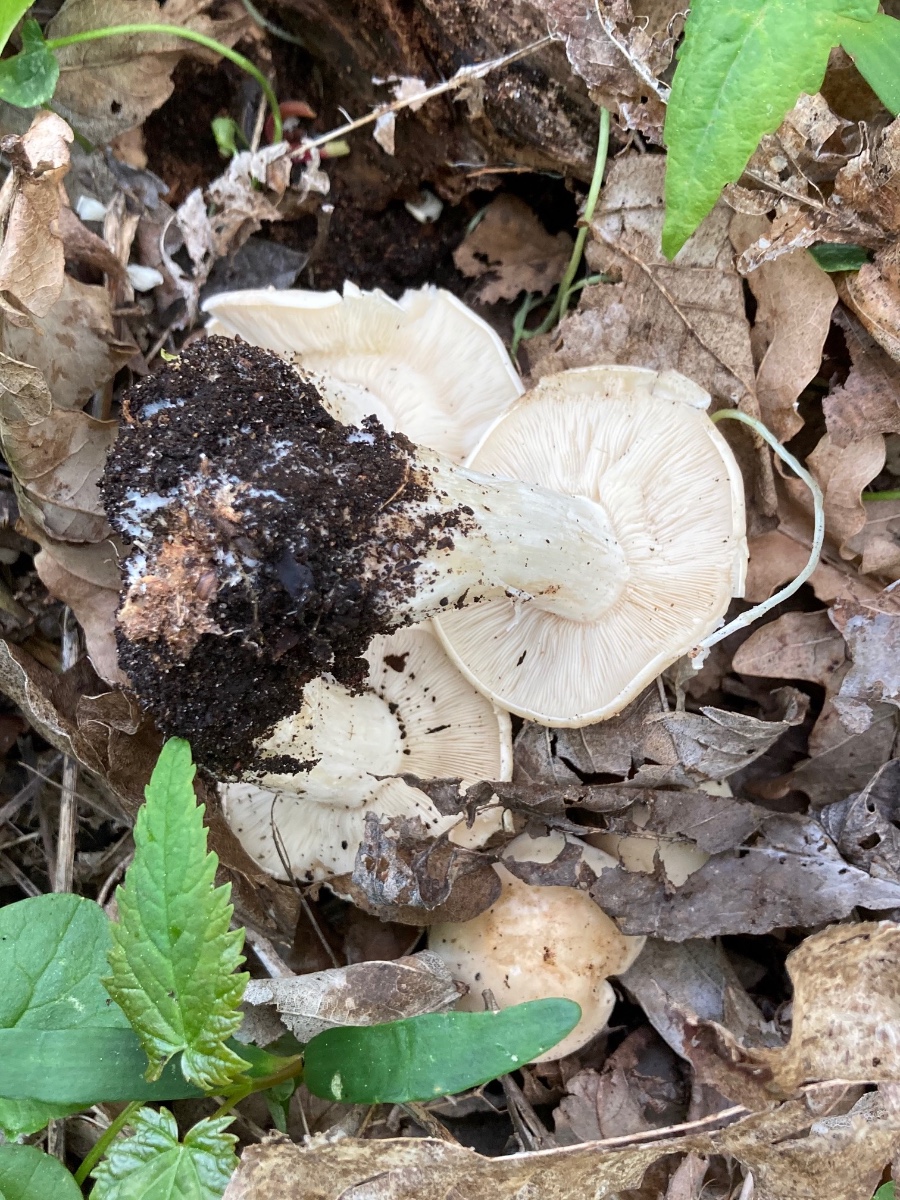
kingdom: Fungi
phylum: Basidiomycota
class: Agaricomycetes
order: Agaricales
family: Lyophyllaceae
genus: Calocybe
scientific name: Calocybe gambosa
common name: vårmusseron
